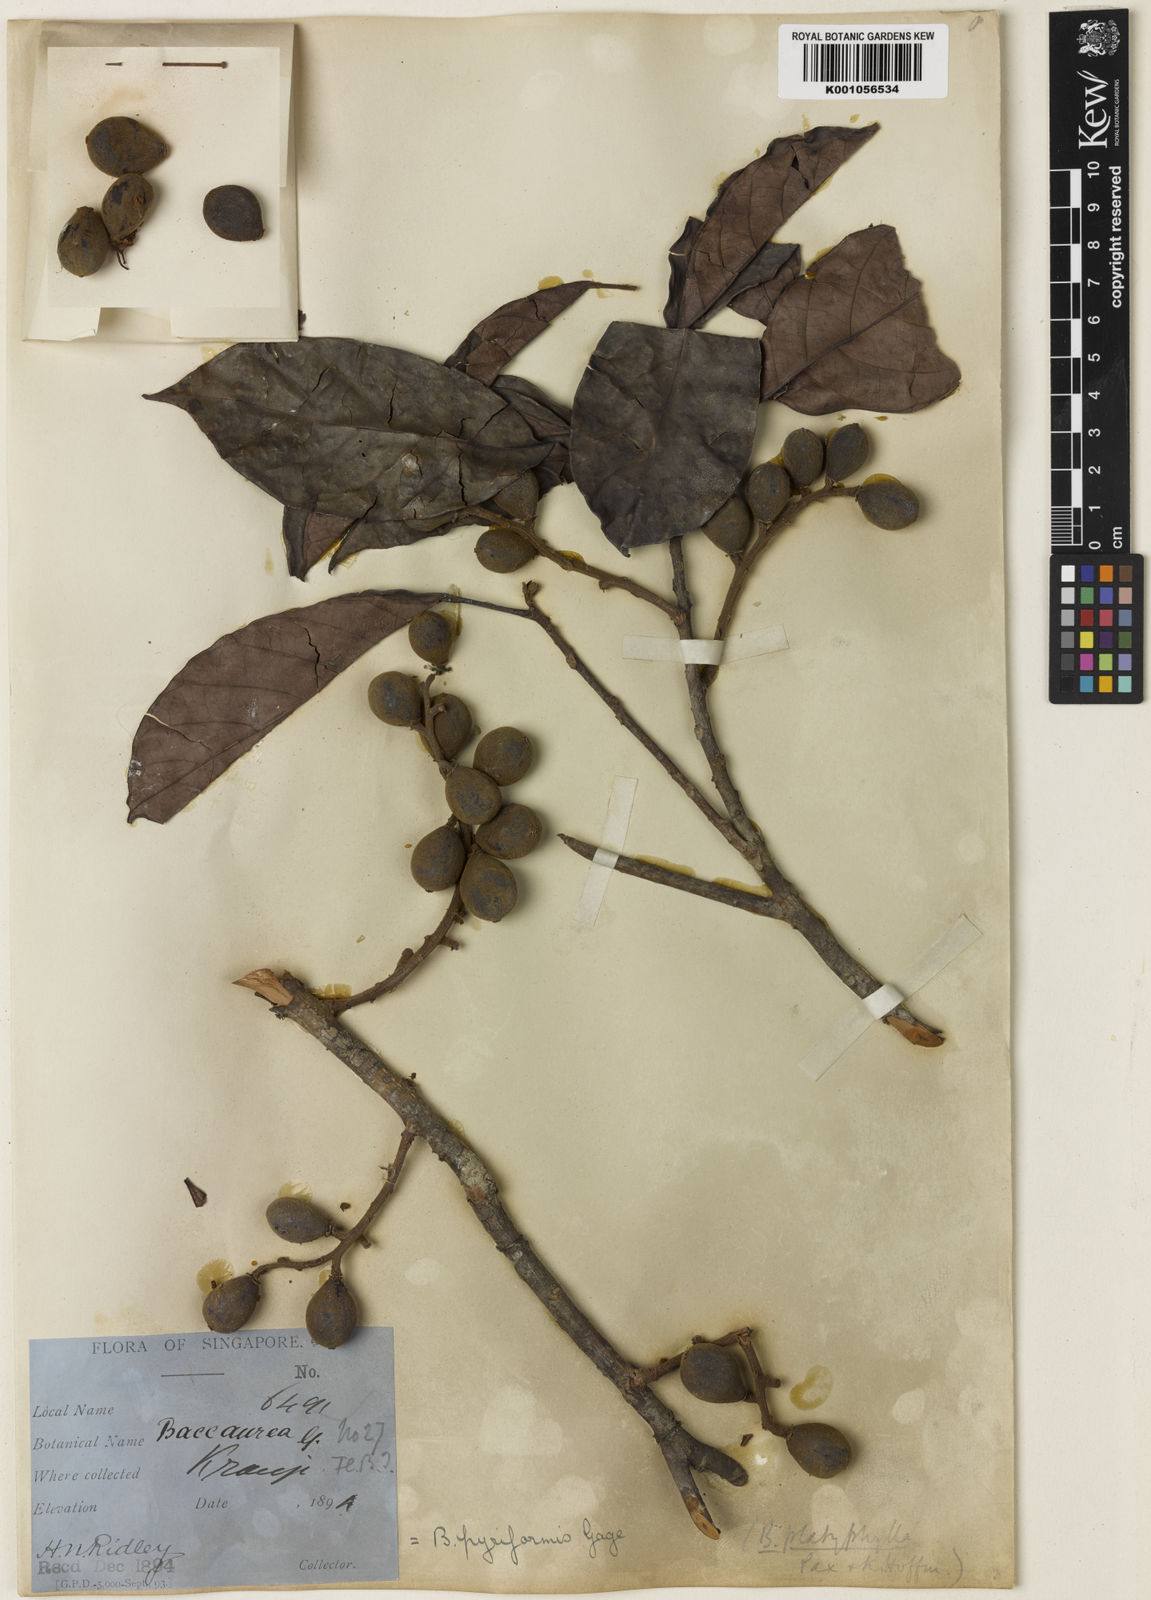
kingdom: Plantae
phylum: Tracheophyta
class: Magnoliopsida
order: Malpighiales
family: Phyllanthaceae
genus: Baccaurea
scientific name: Baccaurea pyriformis
